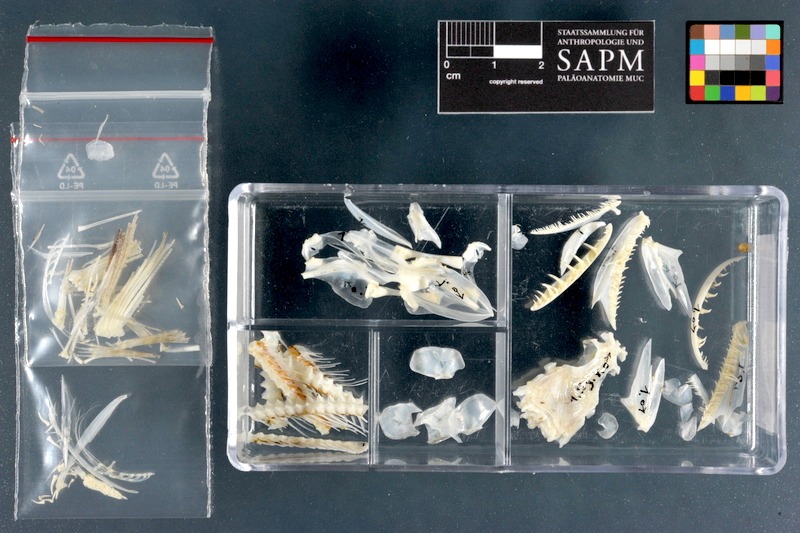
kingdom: Animalia
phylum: Chordata
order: Aulopiformes
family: Synodontidae
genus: Synodus
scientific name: Synodus variegatus
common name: Variegated lizardfish
